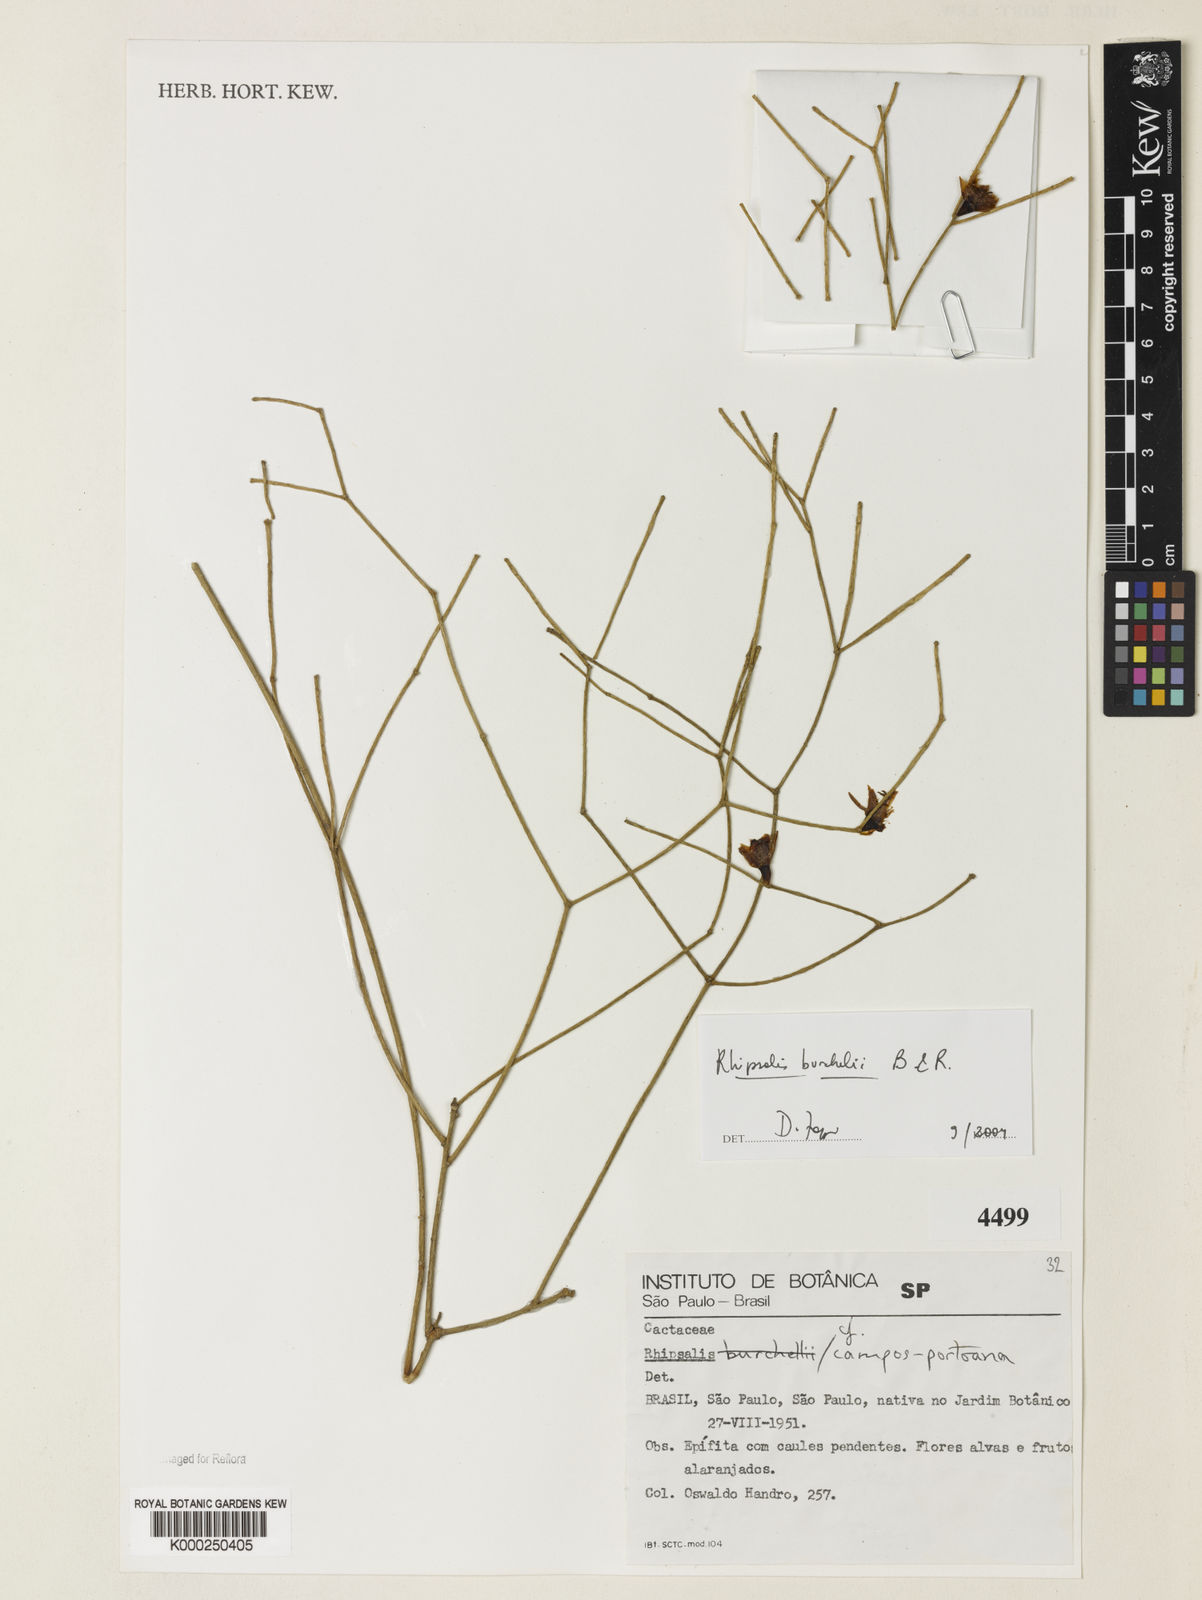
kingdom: Plantae
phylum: Tracheophyta
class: Magnoliopsida
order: Caryophyllales
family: Cactaceae
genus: Rhipsalis
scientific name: Rhipsalis burchellii
